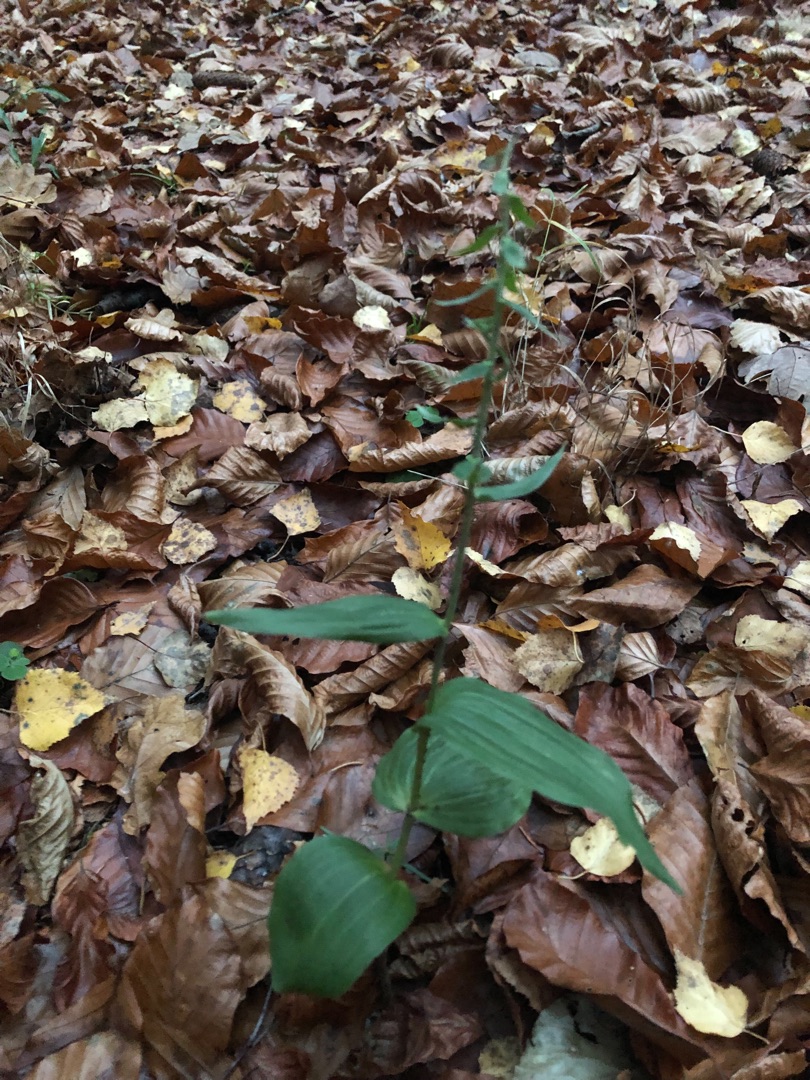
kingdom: Plantae
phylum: Tracheophyta
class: Liliopsida
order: Asparagales
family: Orchidaceae
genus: Epipactis
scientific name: Epipactis helleborine
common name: Skov-hullæbe
